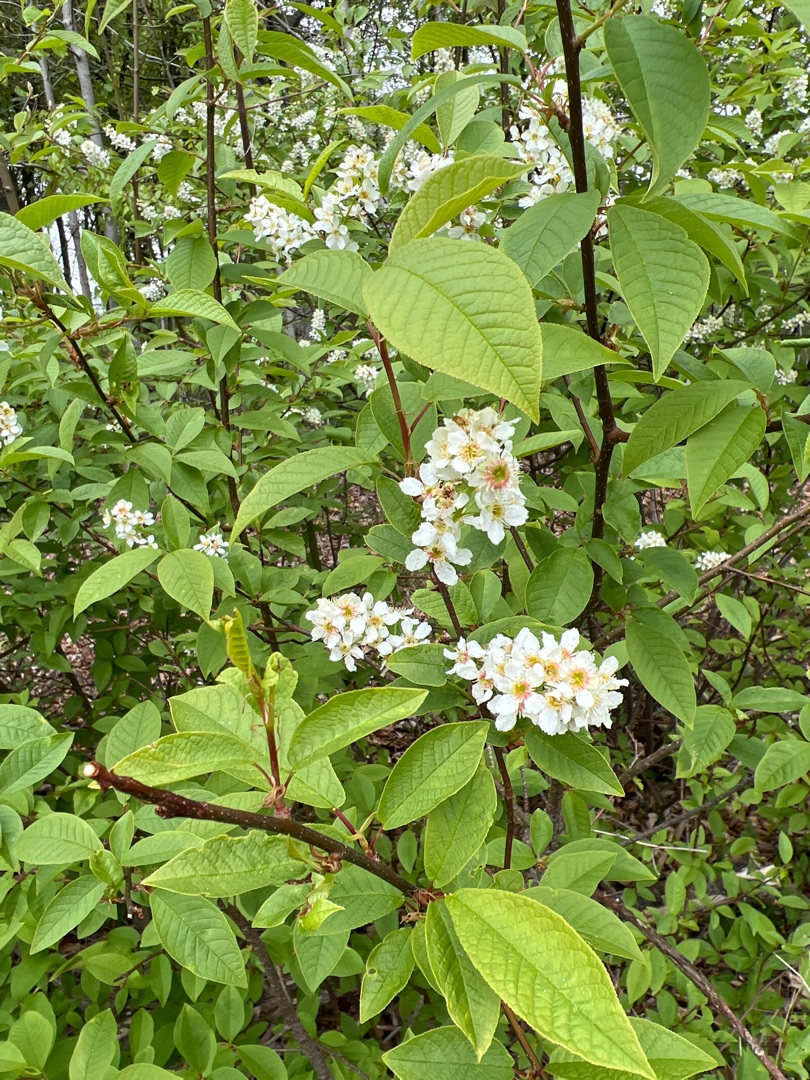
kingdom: Plantae
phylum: Tracheophyta
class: Magnoliopsida
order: Rosales
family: Rosaceae
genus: Prunus
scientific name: Prunus padus
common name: Almindelig hæg
